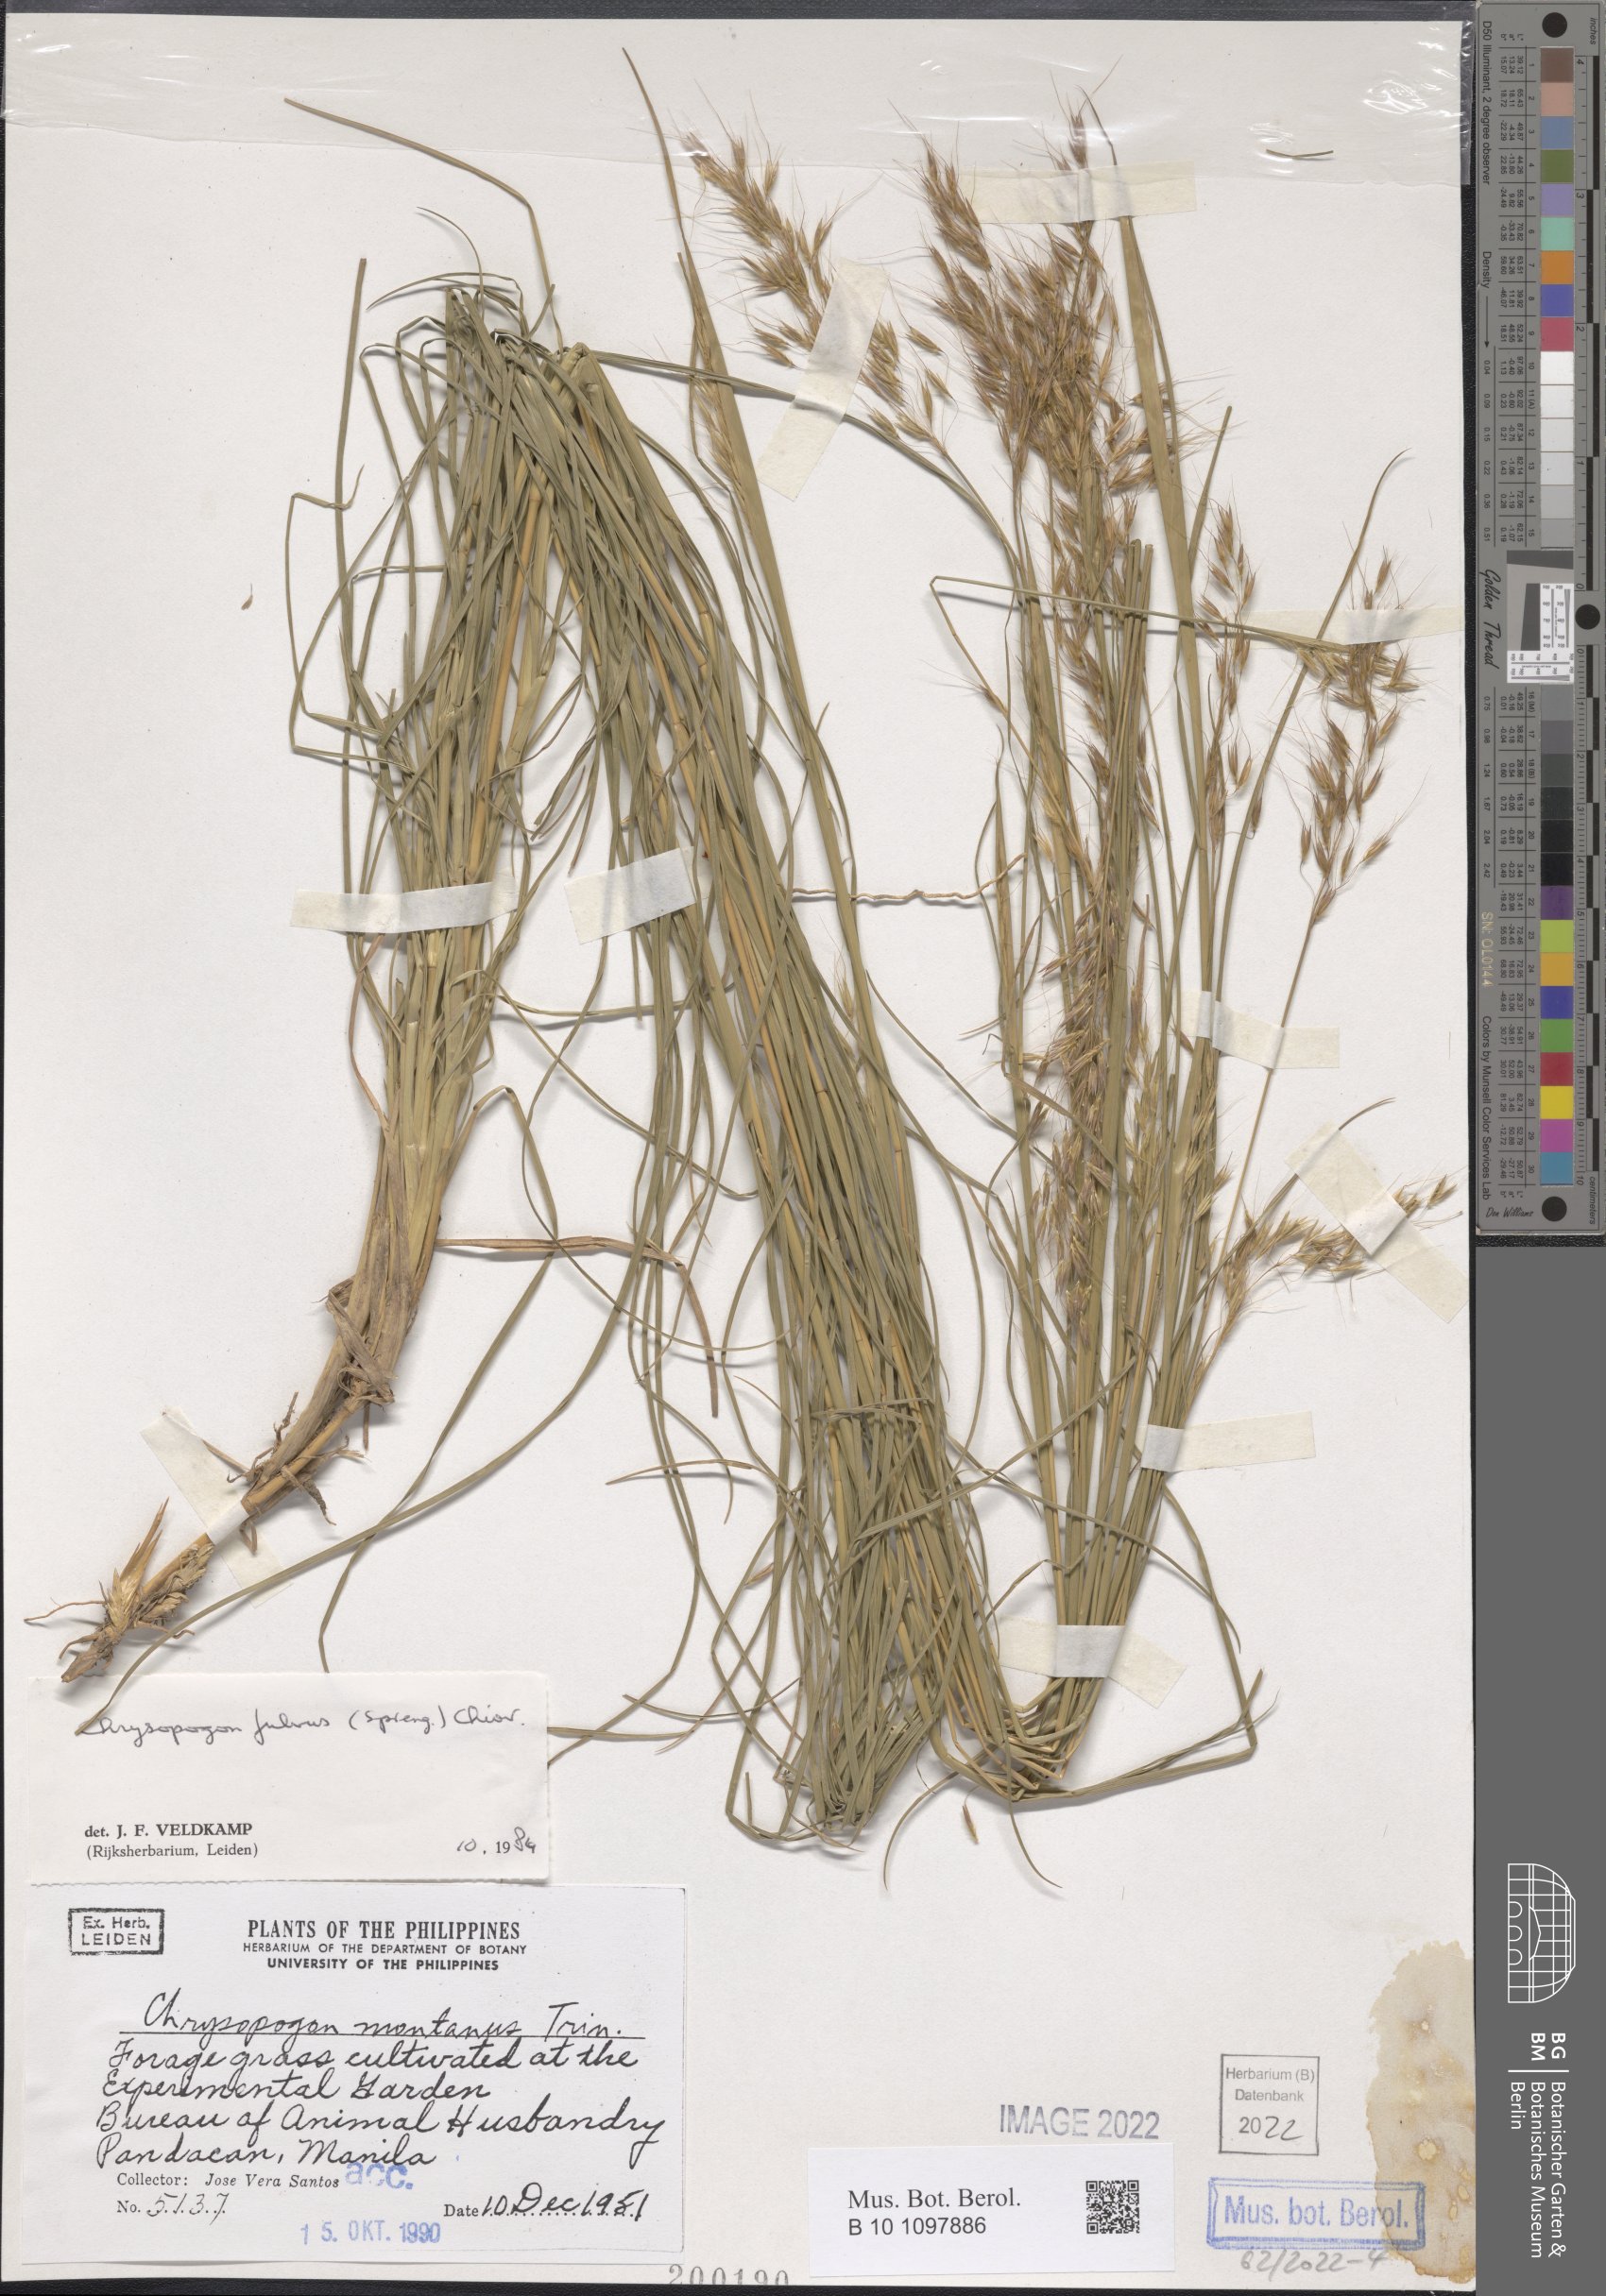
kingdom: Plantae
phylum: Tracheophyta
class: Liliopsida
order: Poales
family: Poaceae
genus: Chrysopogon
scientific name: Chrysopogon fulvus
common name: Red false beardgrass
